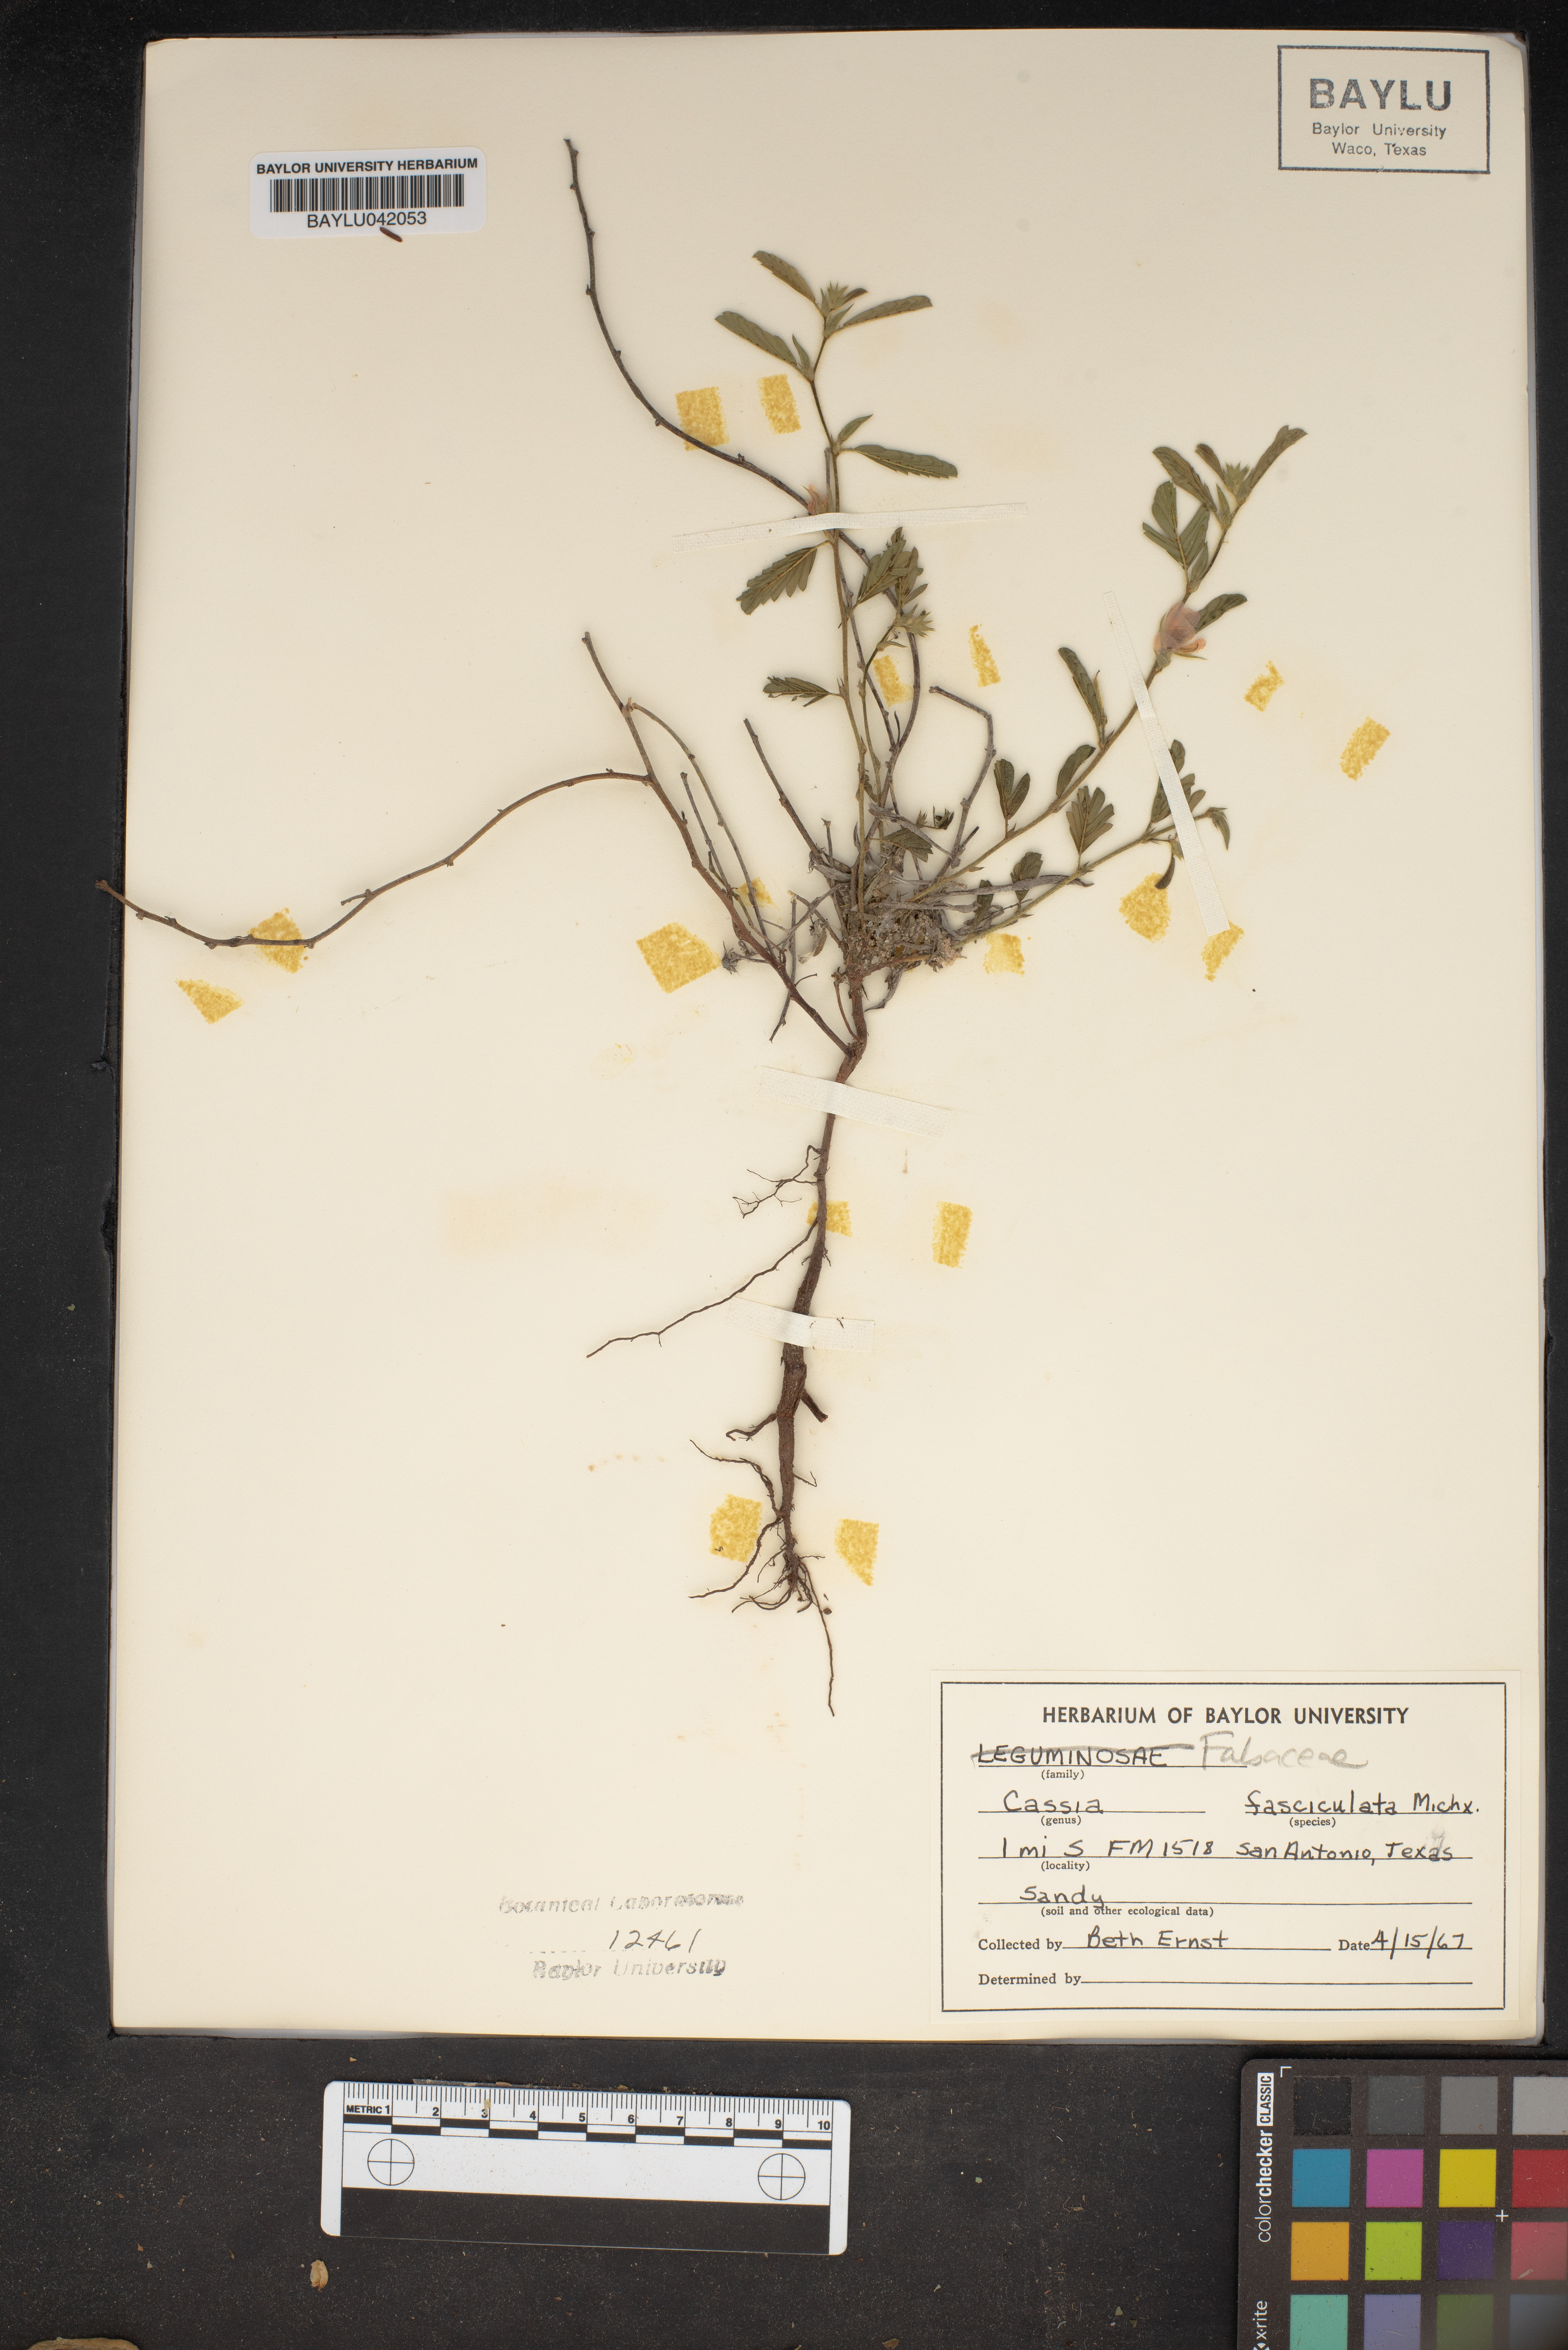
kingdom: Plantae
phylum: Tracheophyta
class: Magnoliopsida
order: Fabales
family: Fabaceae
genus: Chamaecrista
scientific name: Chamaecrista fasciculata
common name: Golden cassia
